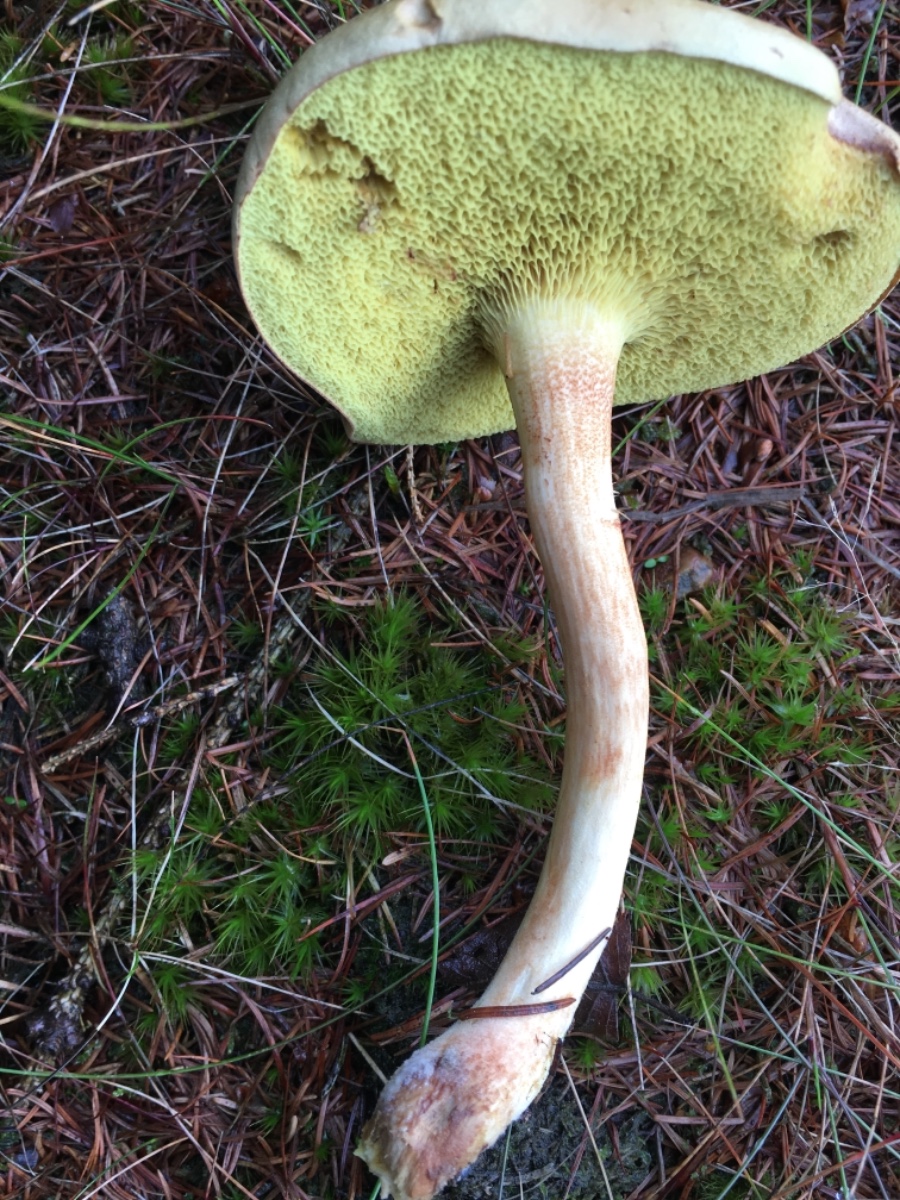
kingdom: Fungi
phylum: Basidiomycota
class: Agaricomycetes
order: Boletales
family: Boletaceae
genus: Xerocomus
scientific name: Xerocomus
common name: filtrørhat
